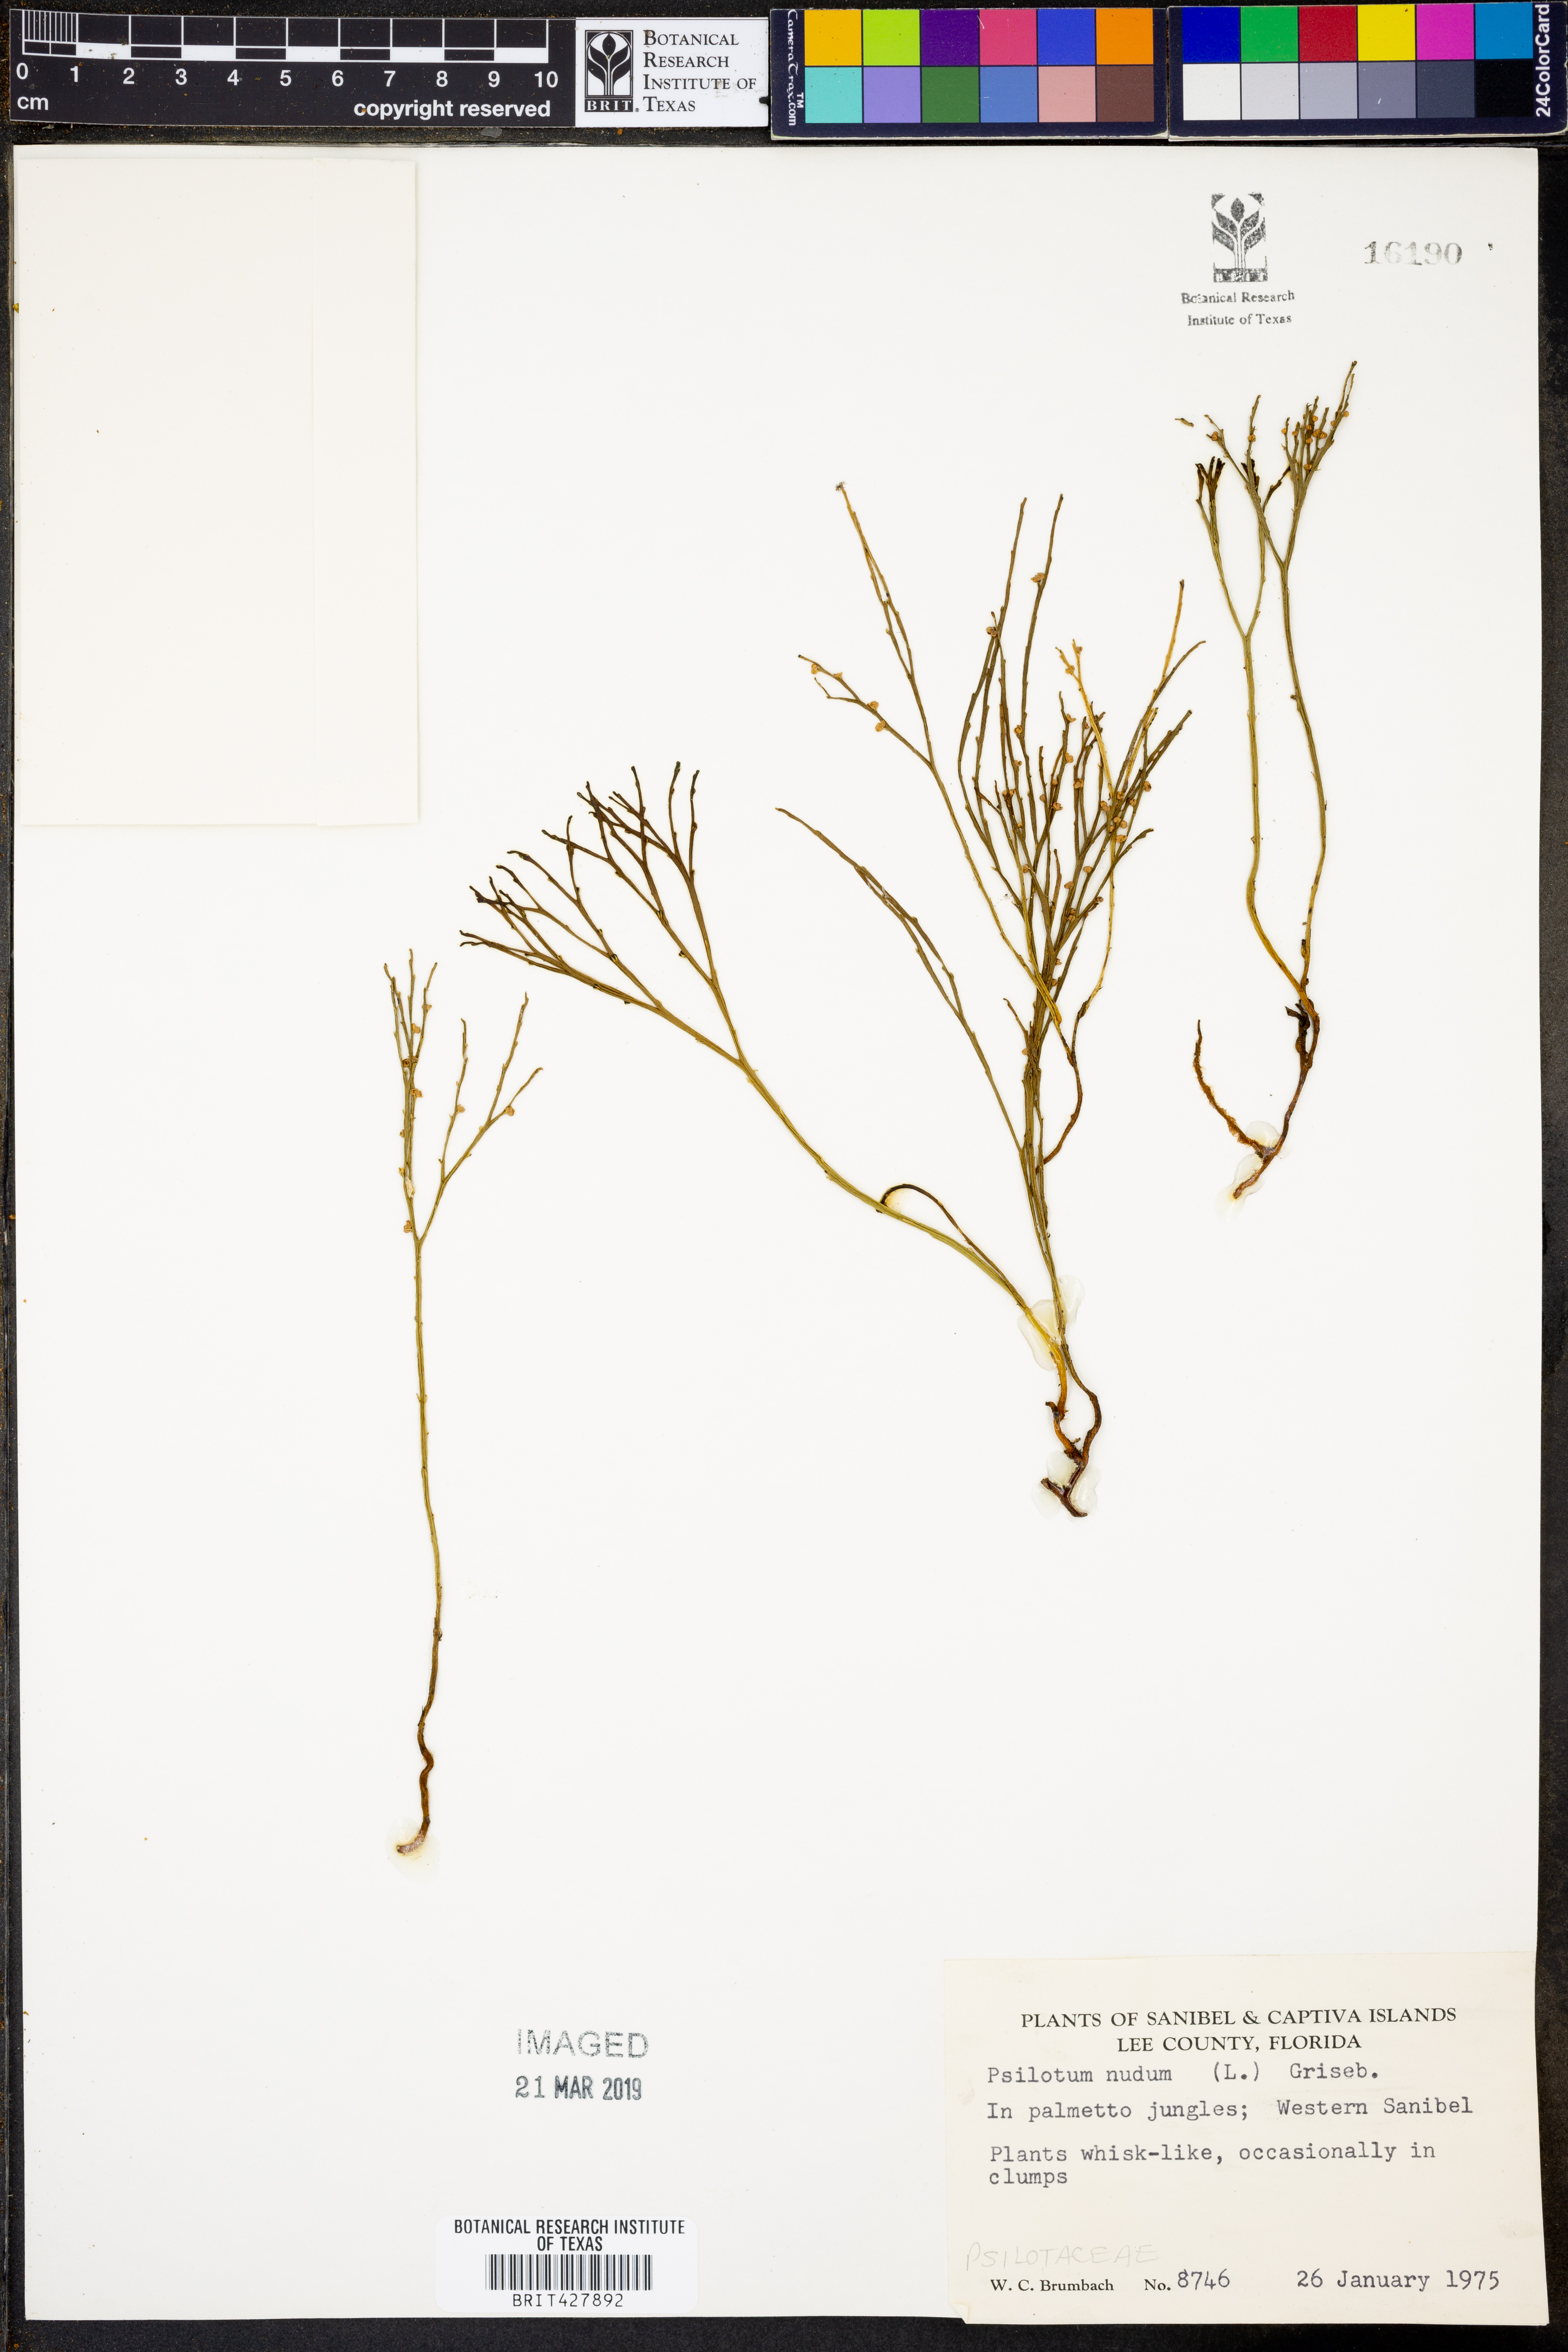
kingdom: Plantae
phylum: Tracheophyta
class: Polypodiopsida
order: Psilotales
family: Psilotaceae
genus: Psilotum
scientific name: Psilotum nudum
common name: Skeleton fork fern
